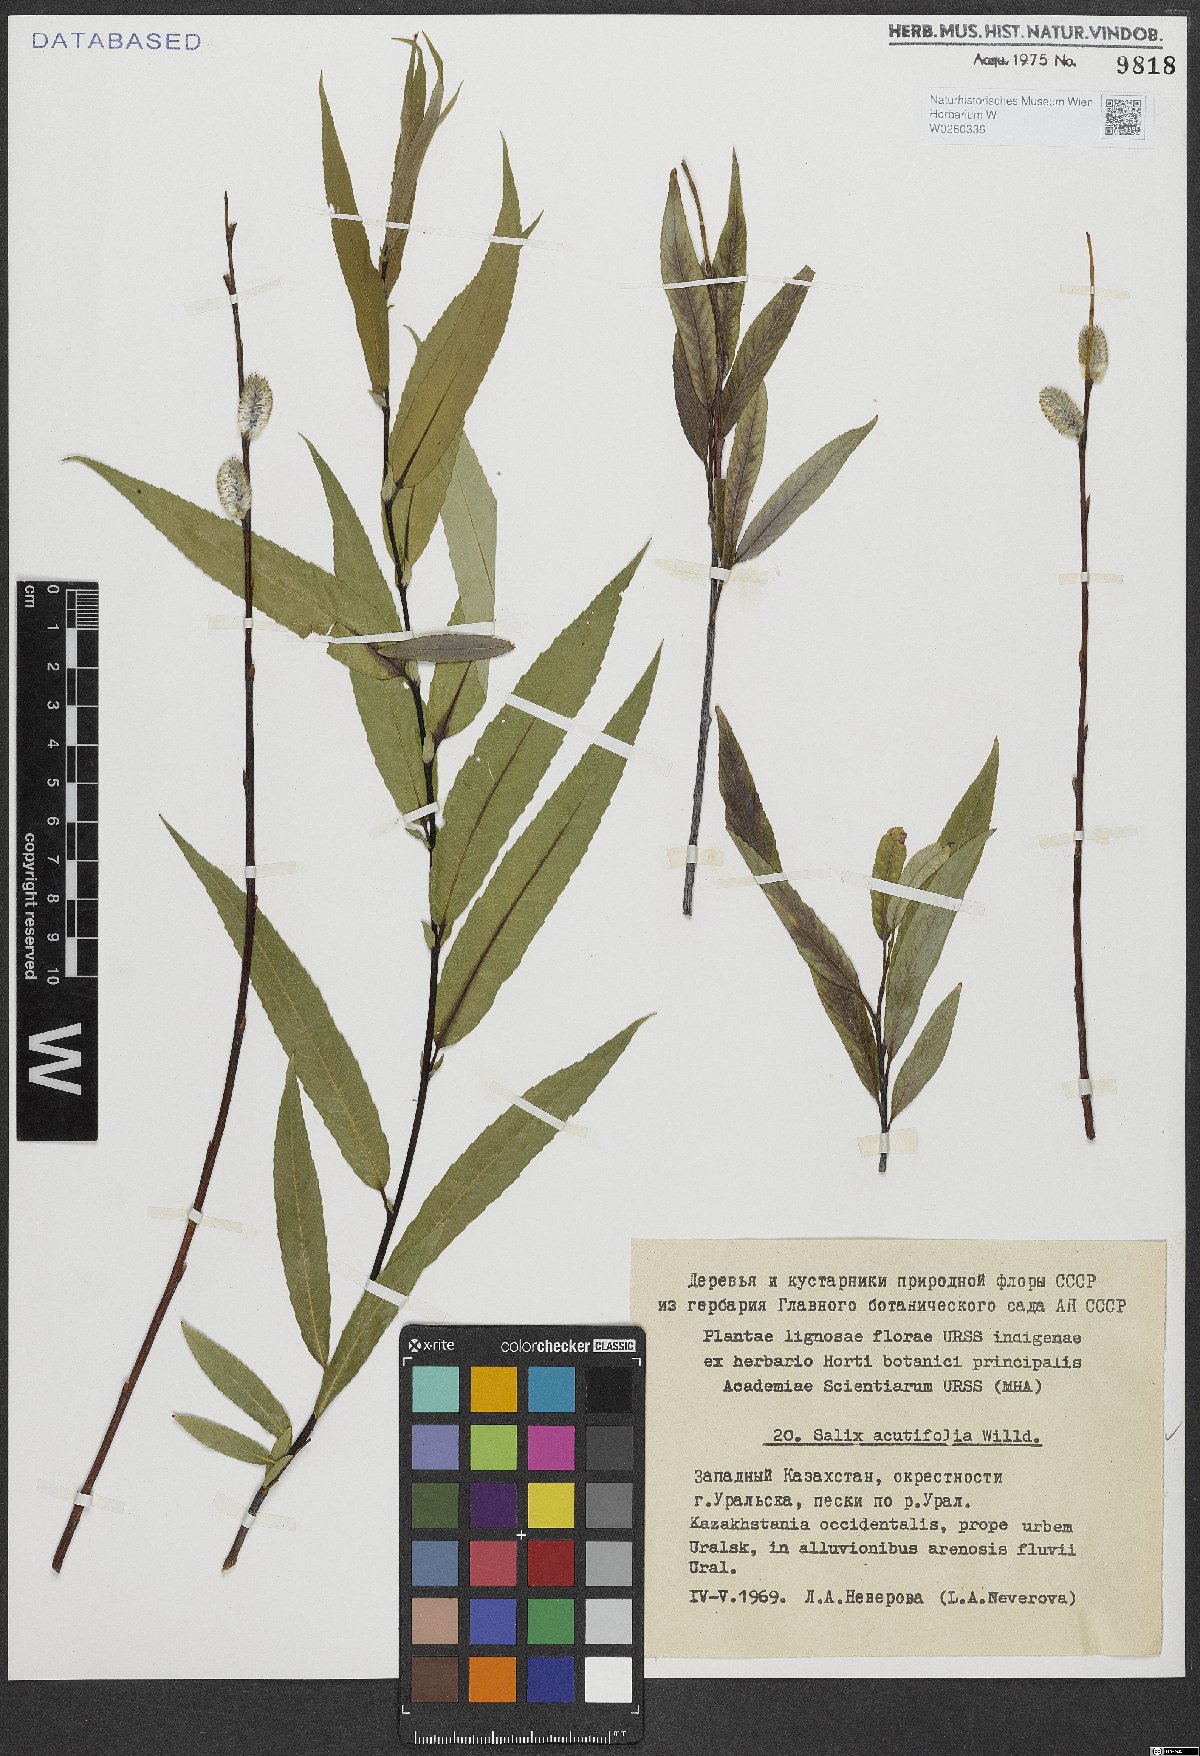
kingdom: Plantae
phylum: Tracheophyta
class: Magnoliopsida
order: Malpighiales
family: Salicaceae
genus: Salix
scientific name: Salix acutifolia
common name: Siberian violet-willow
